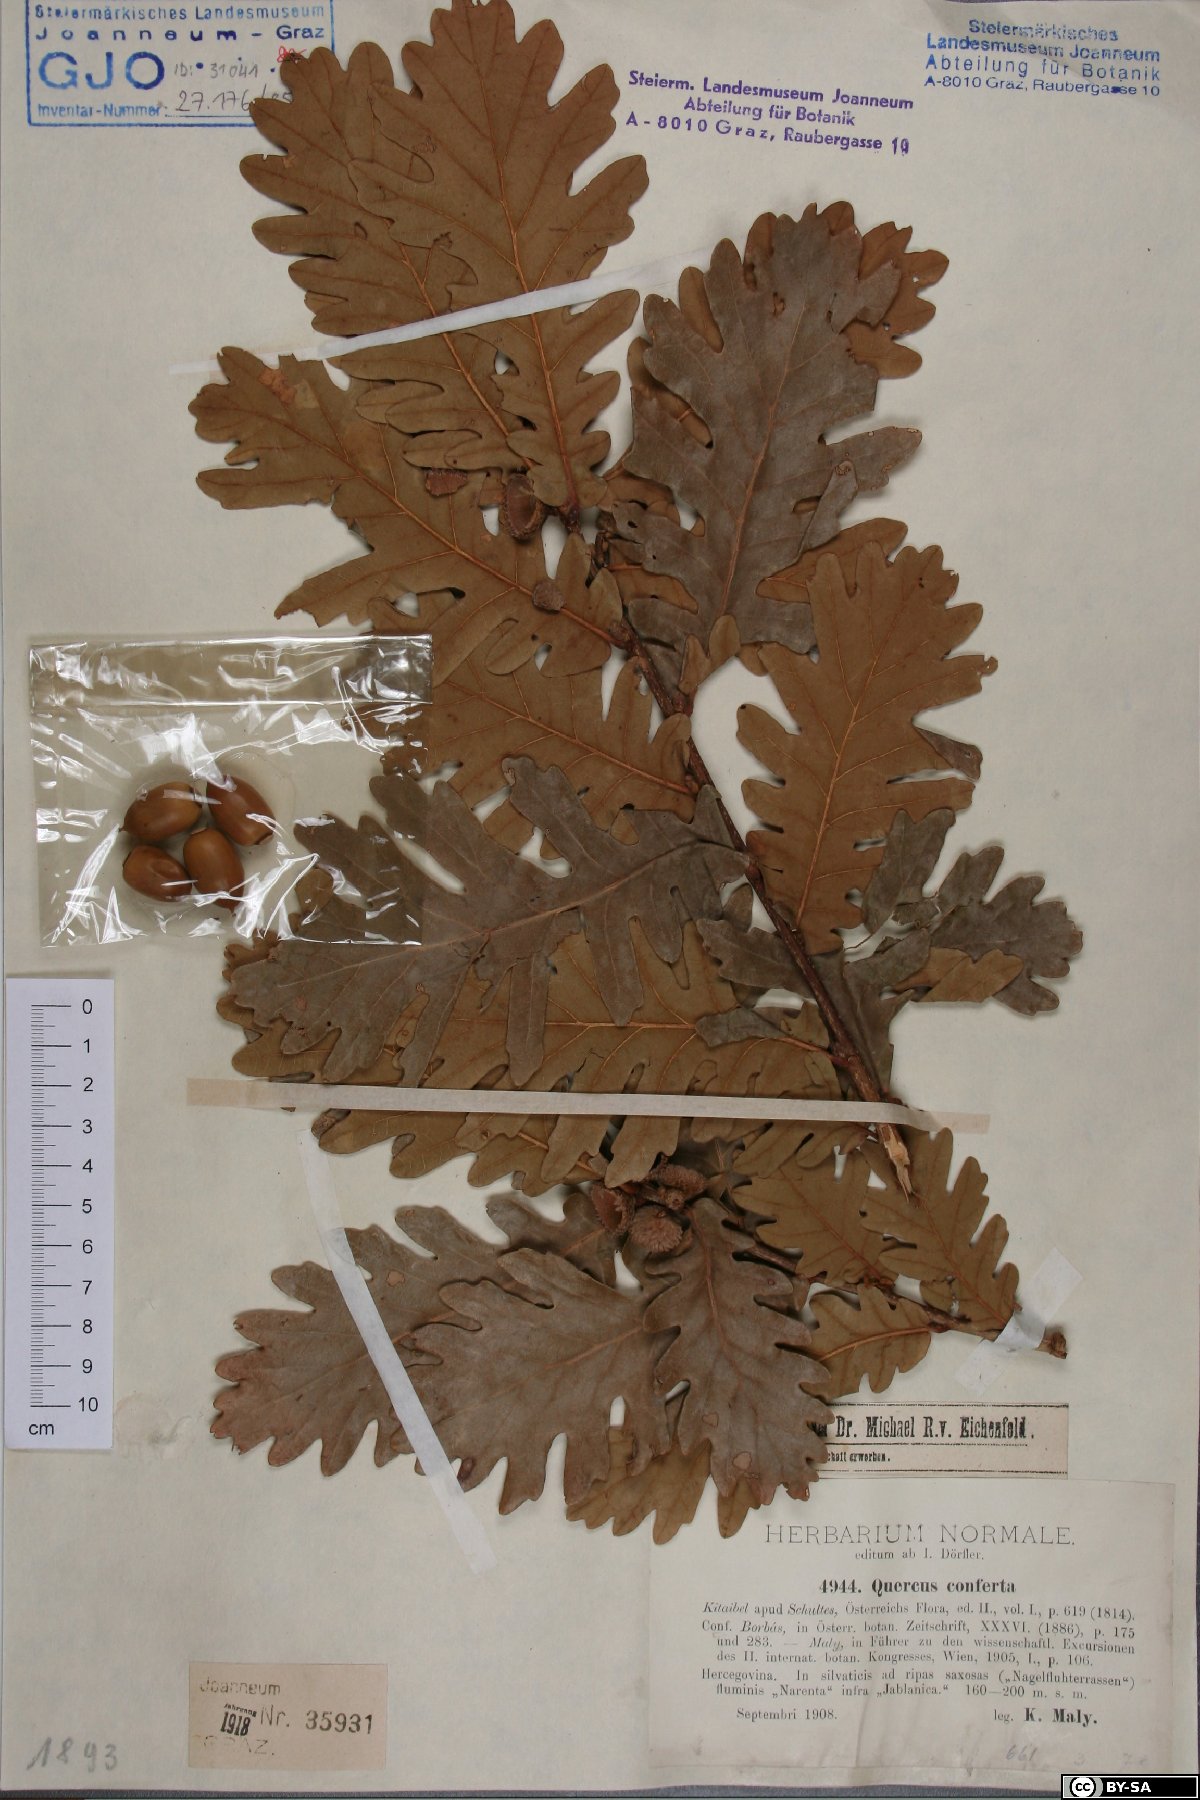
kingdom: Plantae
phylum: Tracheophyta
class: Magnoliopsida
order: Fagales
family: Fagaceae
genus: Quercus
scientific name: Quercus conferta
